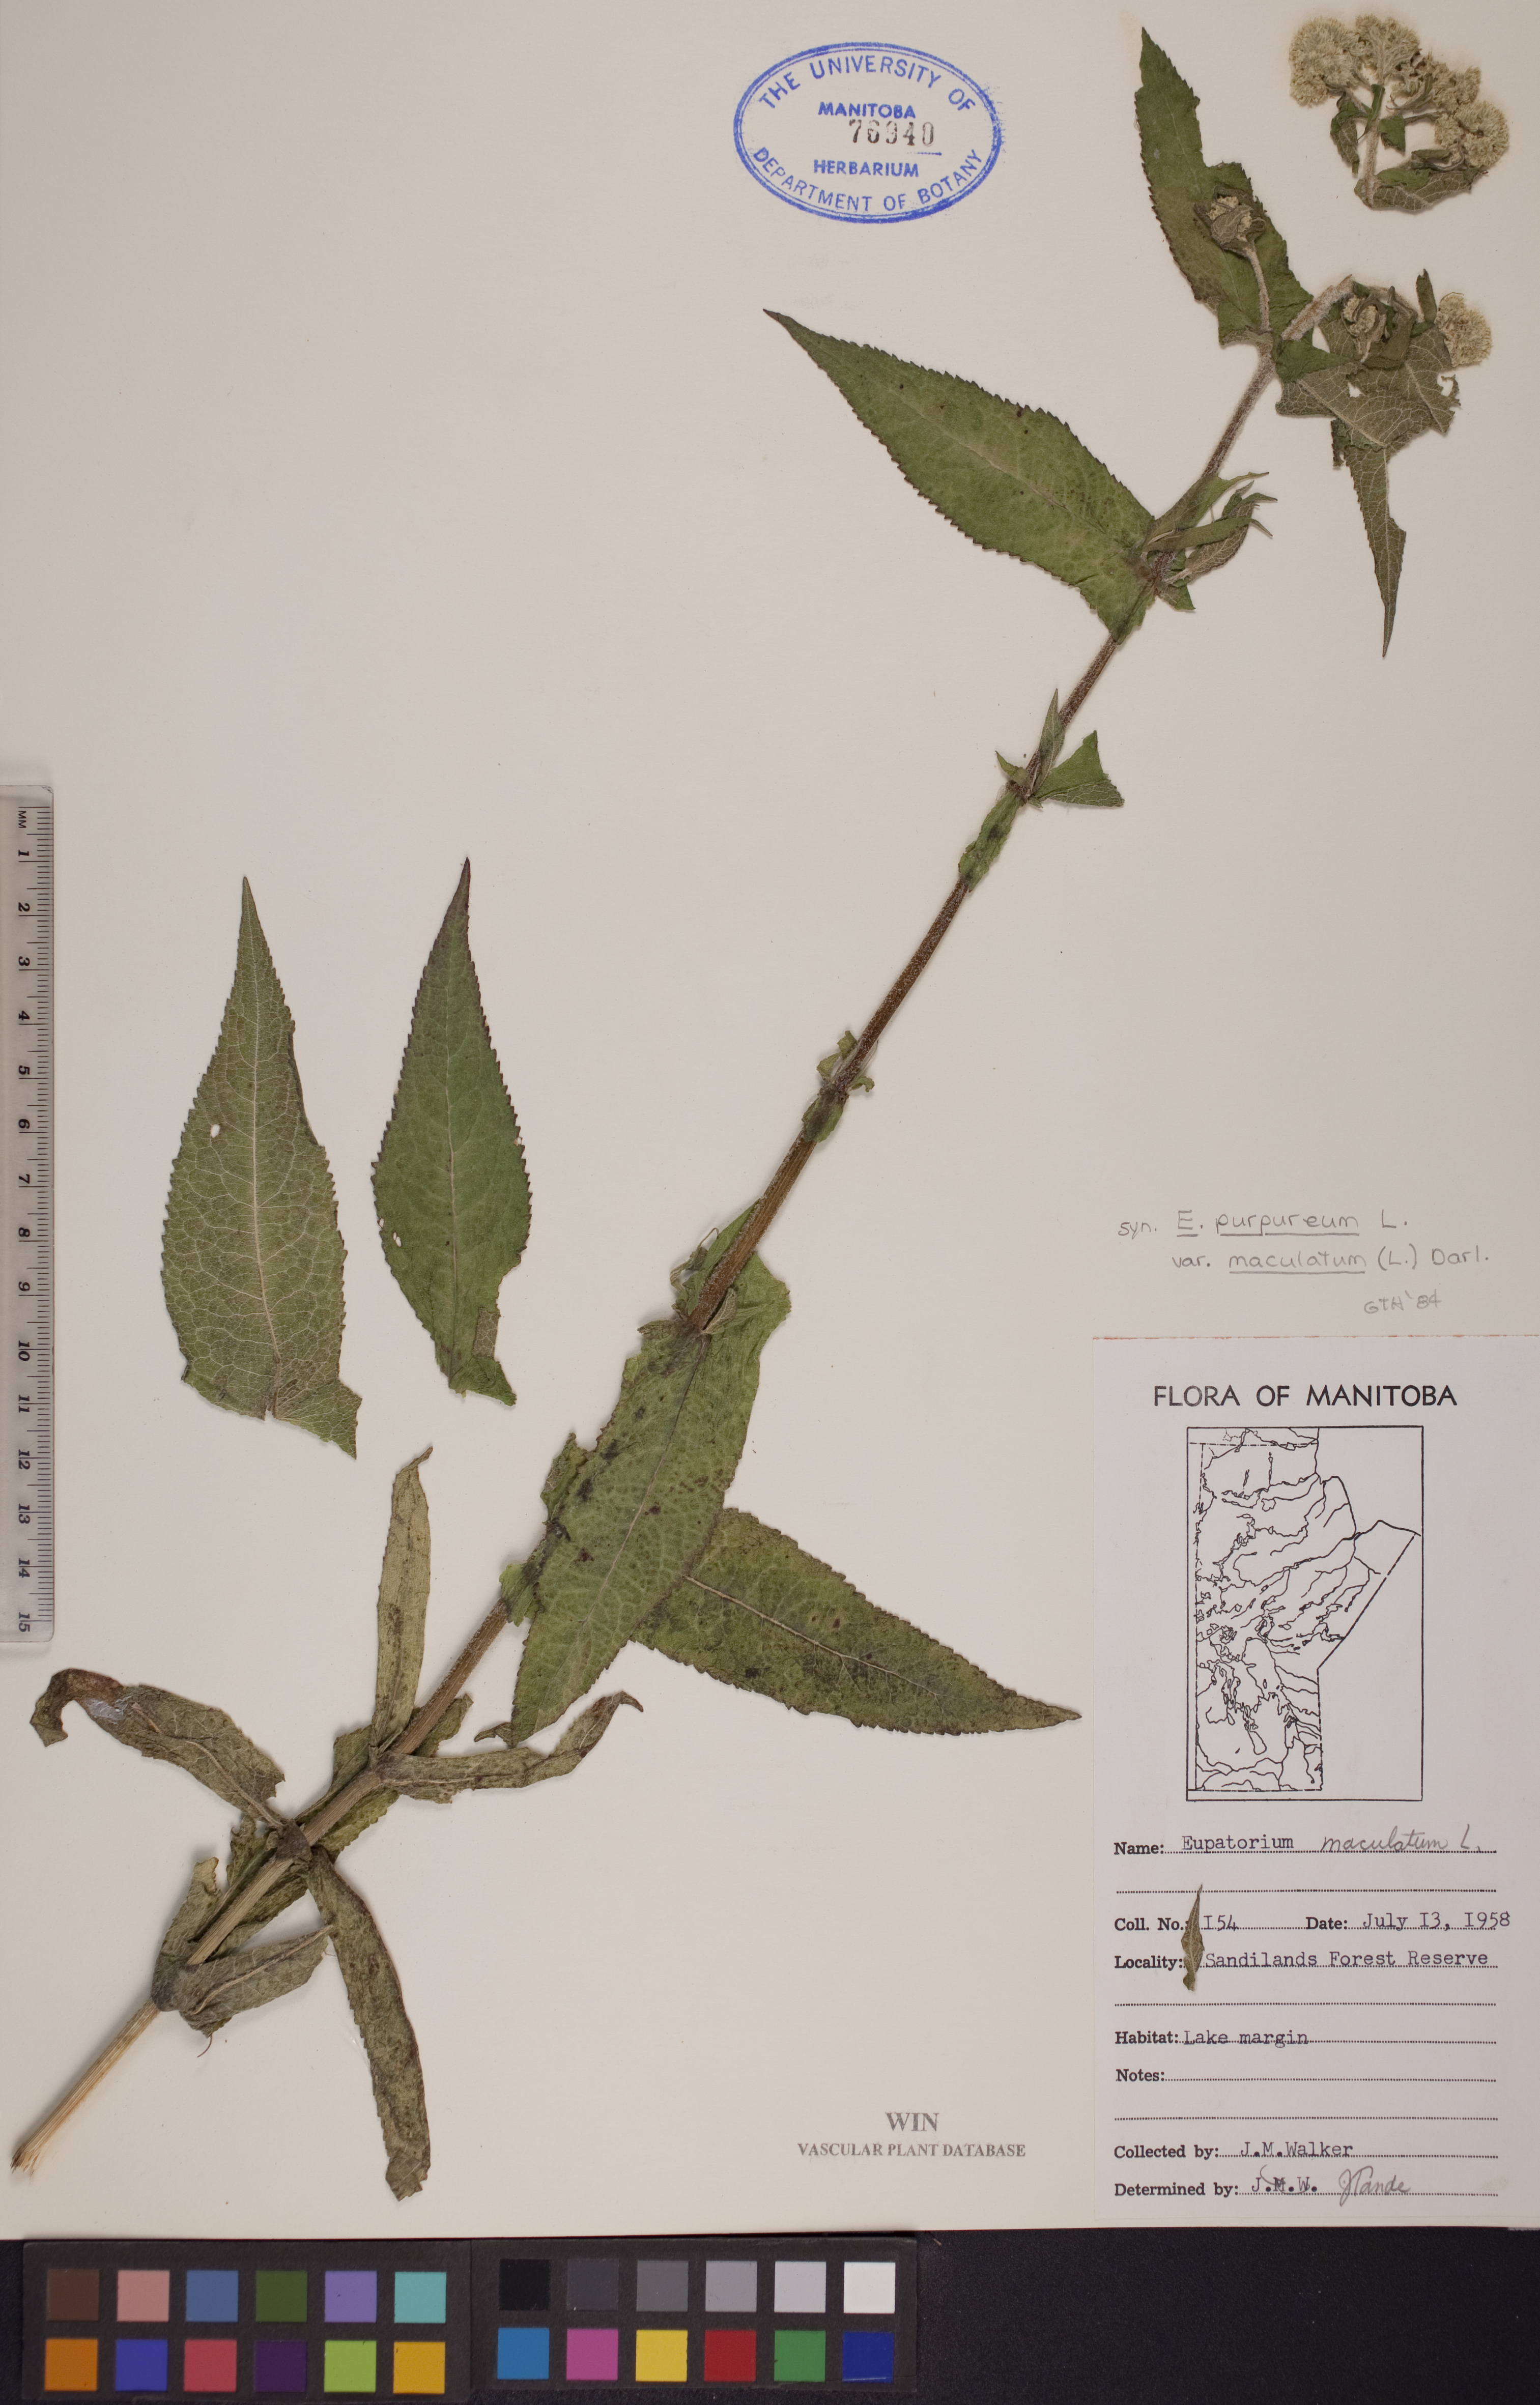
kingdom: Plantae
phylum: Tracheophyta
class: Magnoliopsida
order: Asterales
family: Asteraceae
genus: Eutrochium
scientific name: Eutrochium maculatum
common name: Spotted joe pye weed
